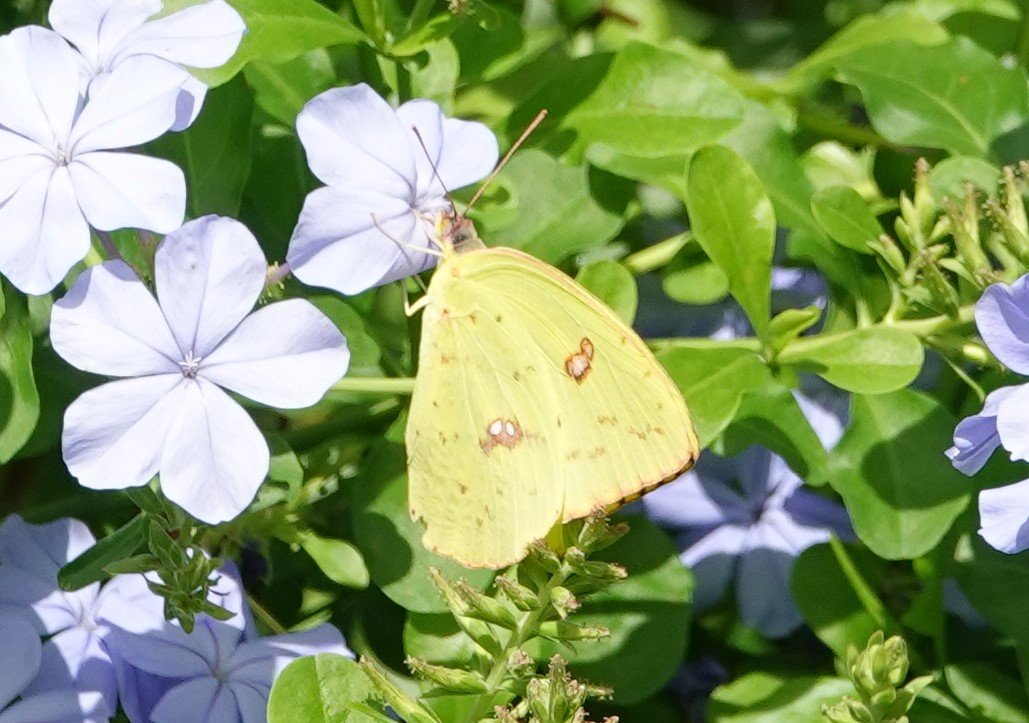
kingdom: Animalia
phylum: Arthropoda
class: Insecta
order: Lepidoptera
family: Pieridae
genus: Phoebis
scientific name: Phoebis sennae
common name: Cloudless Sulphur
